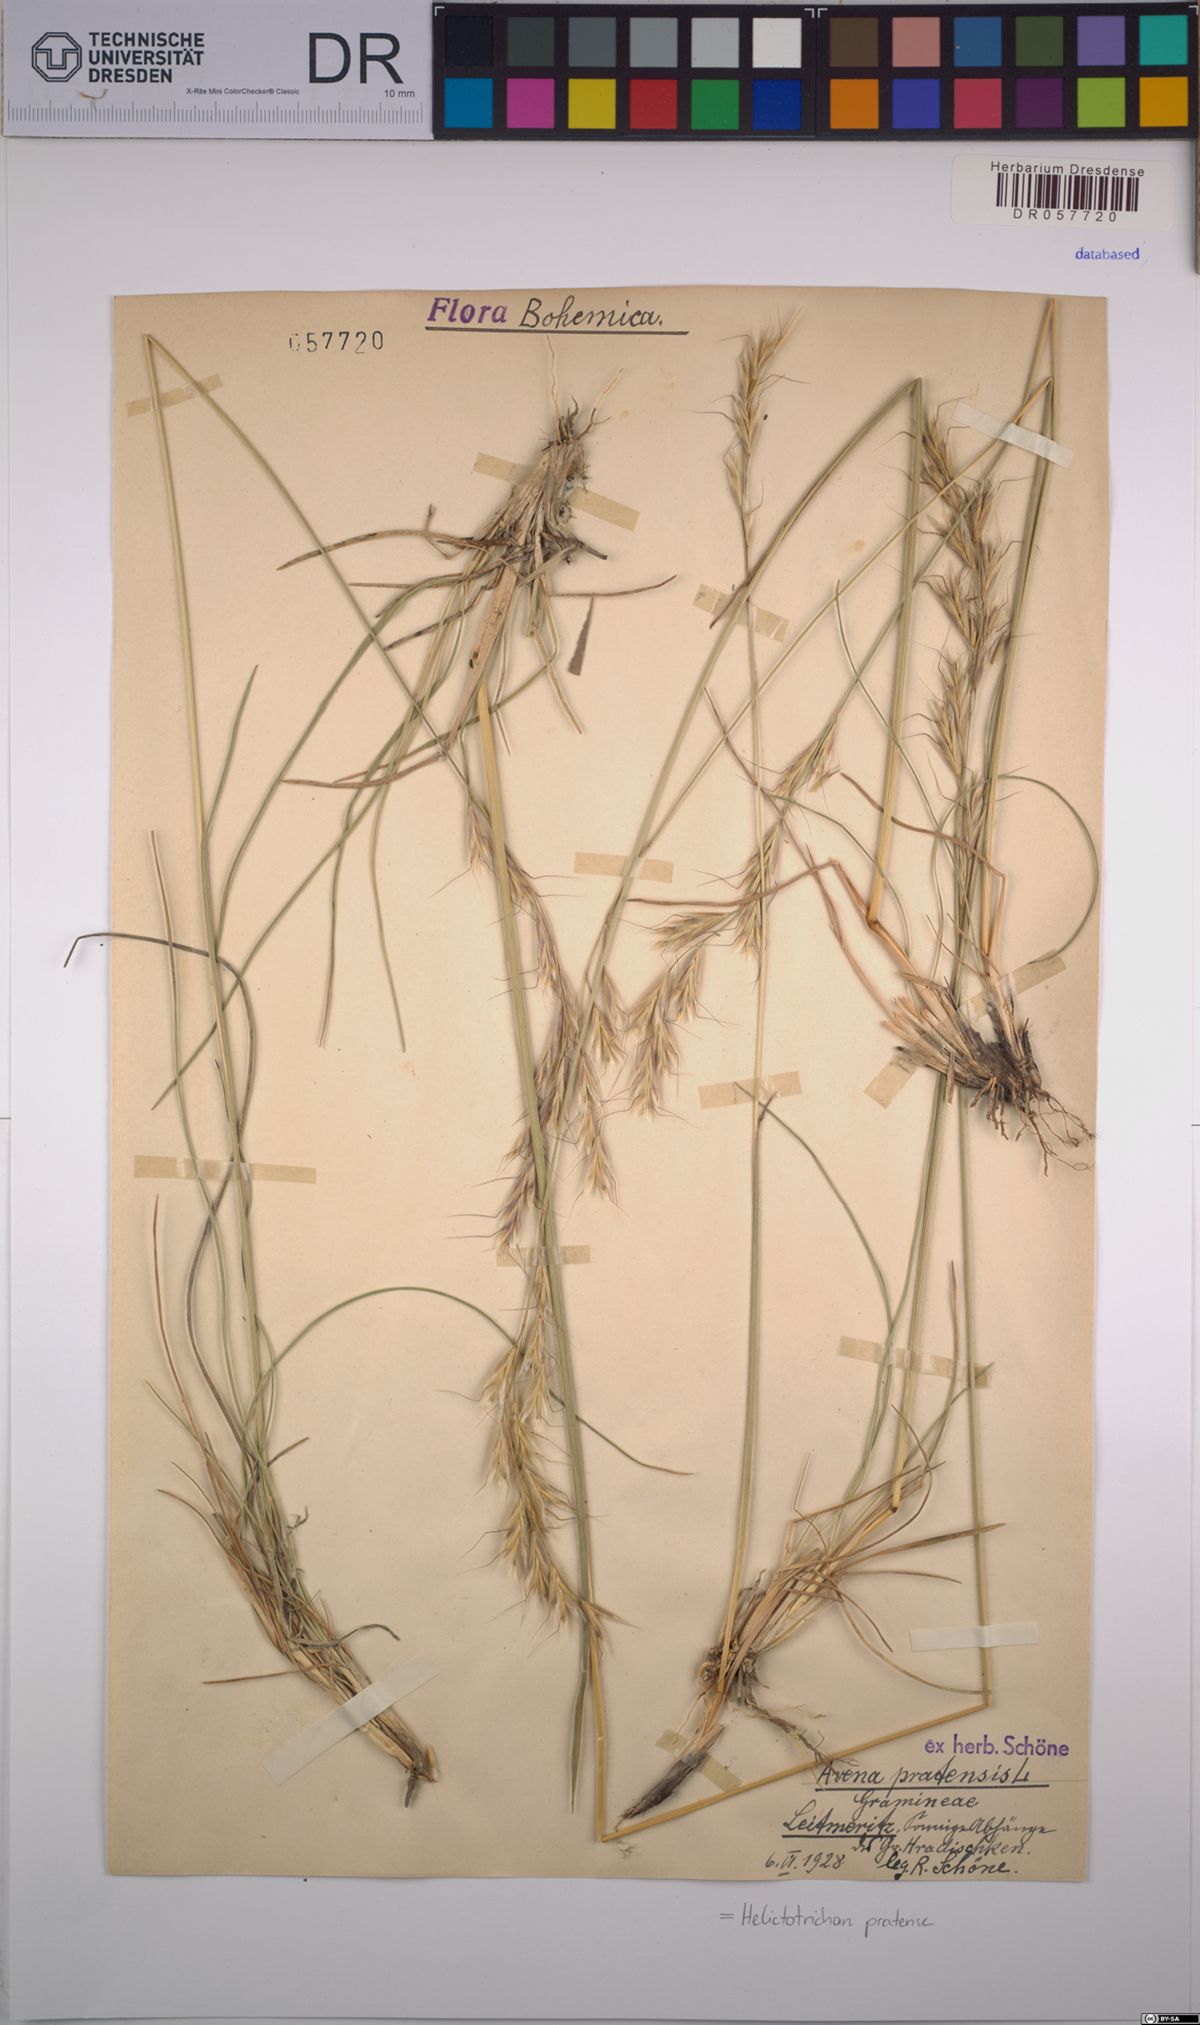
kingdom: Plantae
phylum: Tracheophyta
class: Liliopsida
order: Poales
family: Poaceae
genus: Helictochloa
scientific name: Helictochloa pratensis
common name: Meadow oat grass
